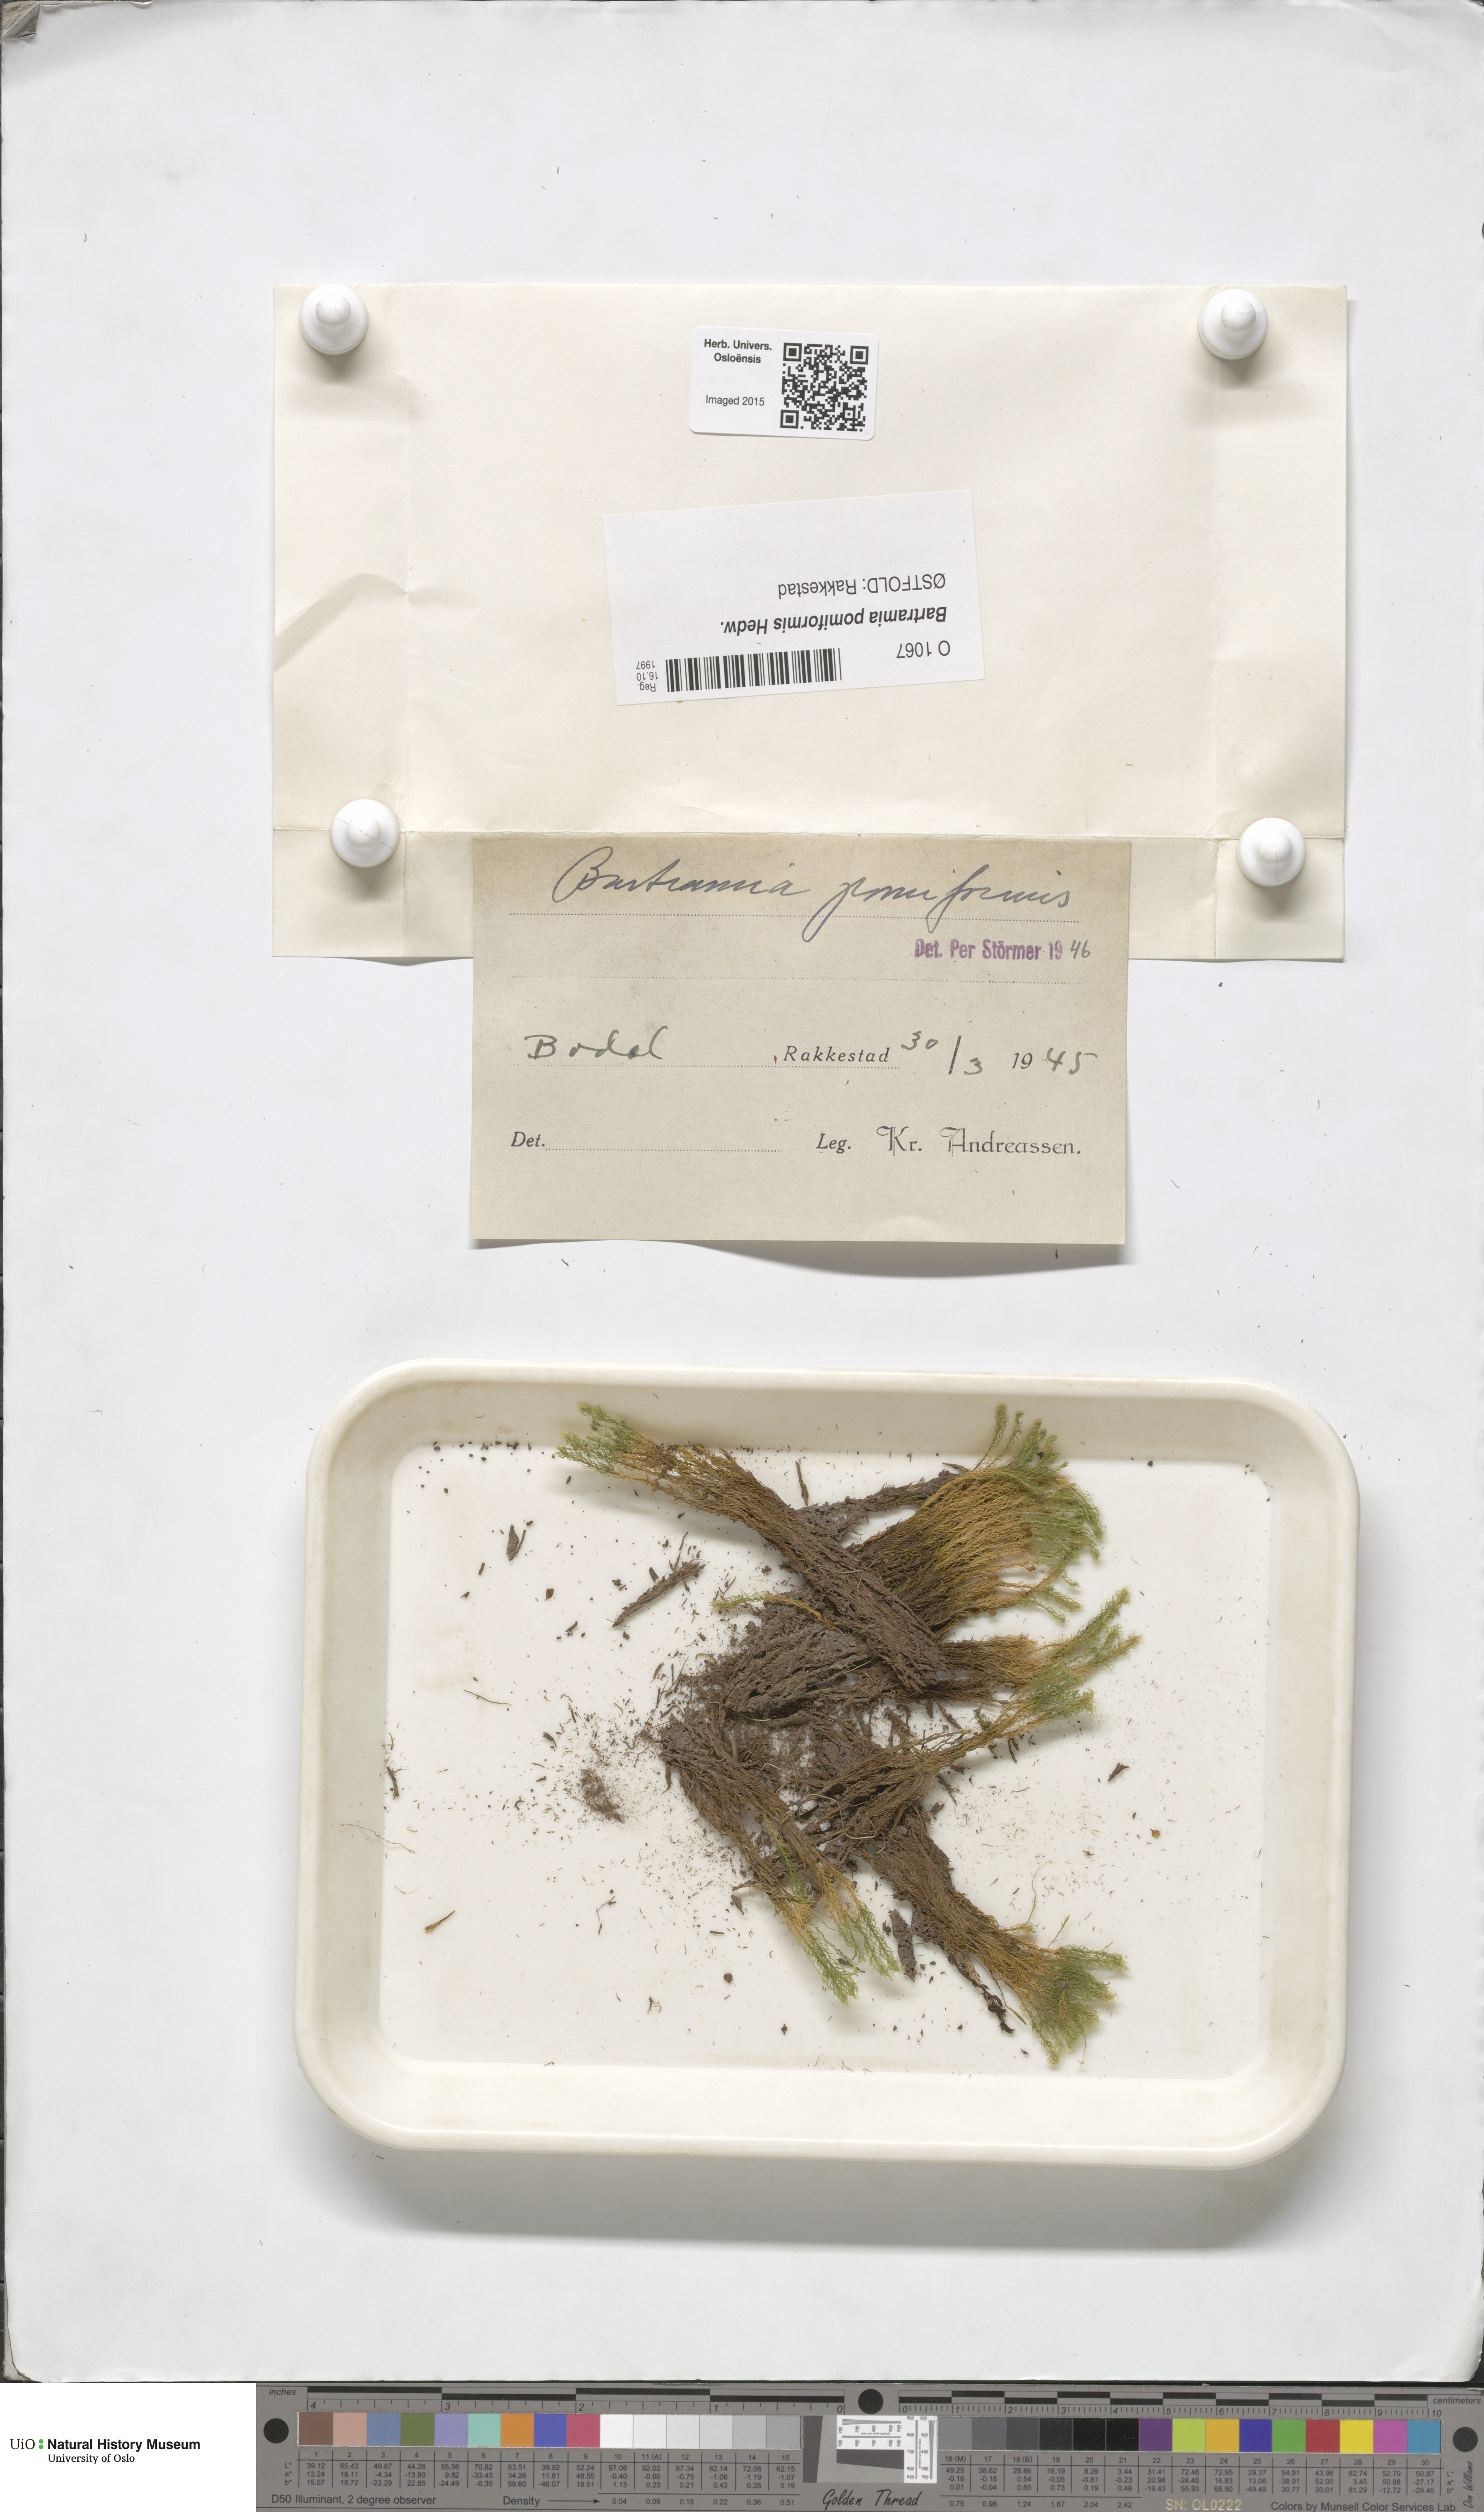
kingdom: Plantae
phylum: Bryophyta
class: Bryopsida
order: Bartramiales
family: Bartramiaceae
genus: Bartramia
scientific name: Bartramia pomiformis
